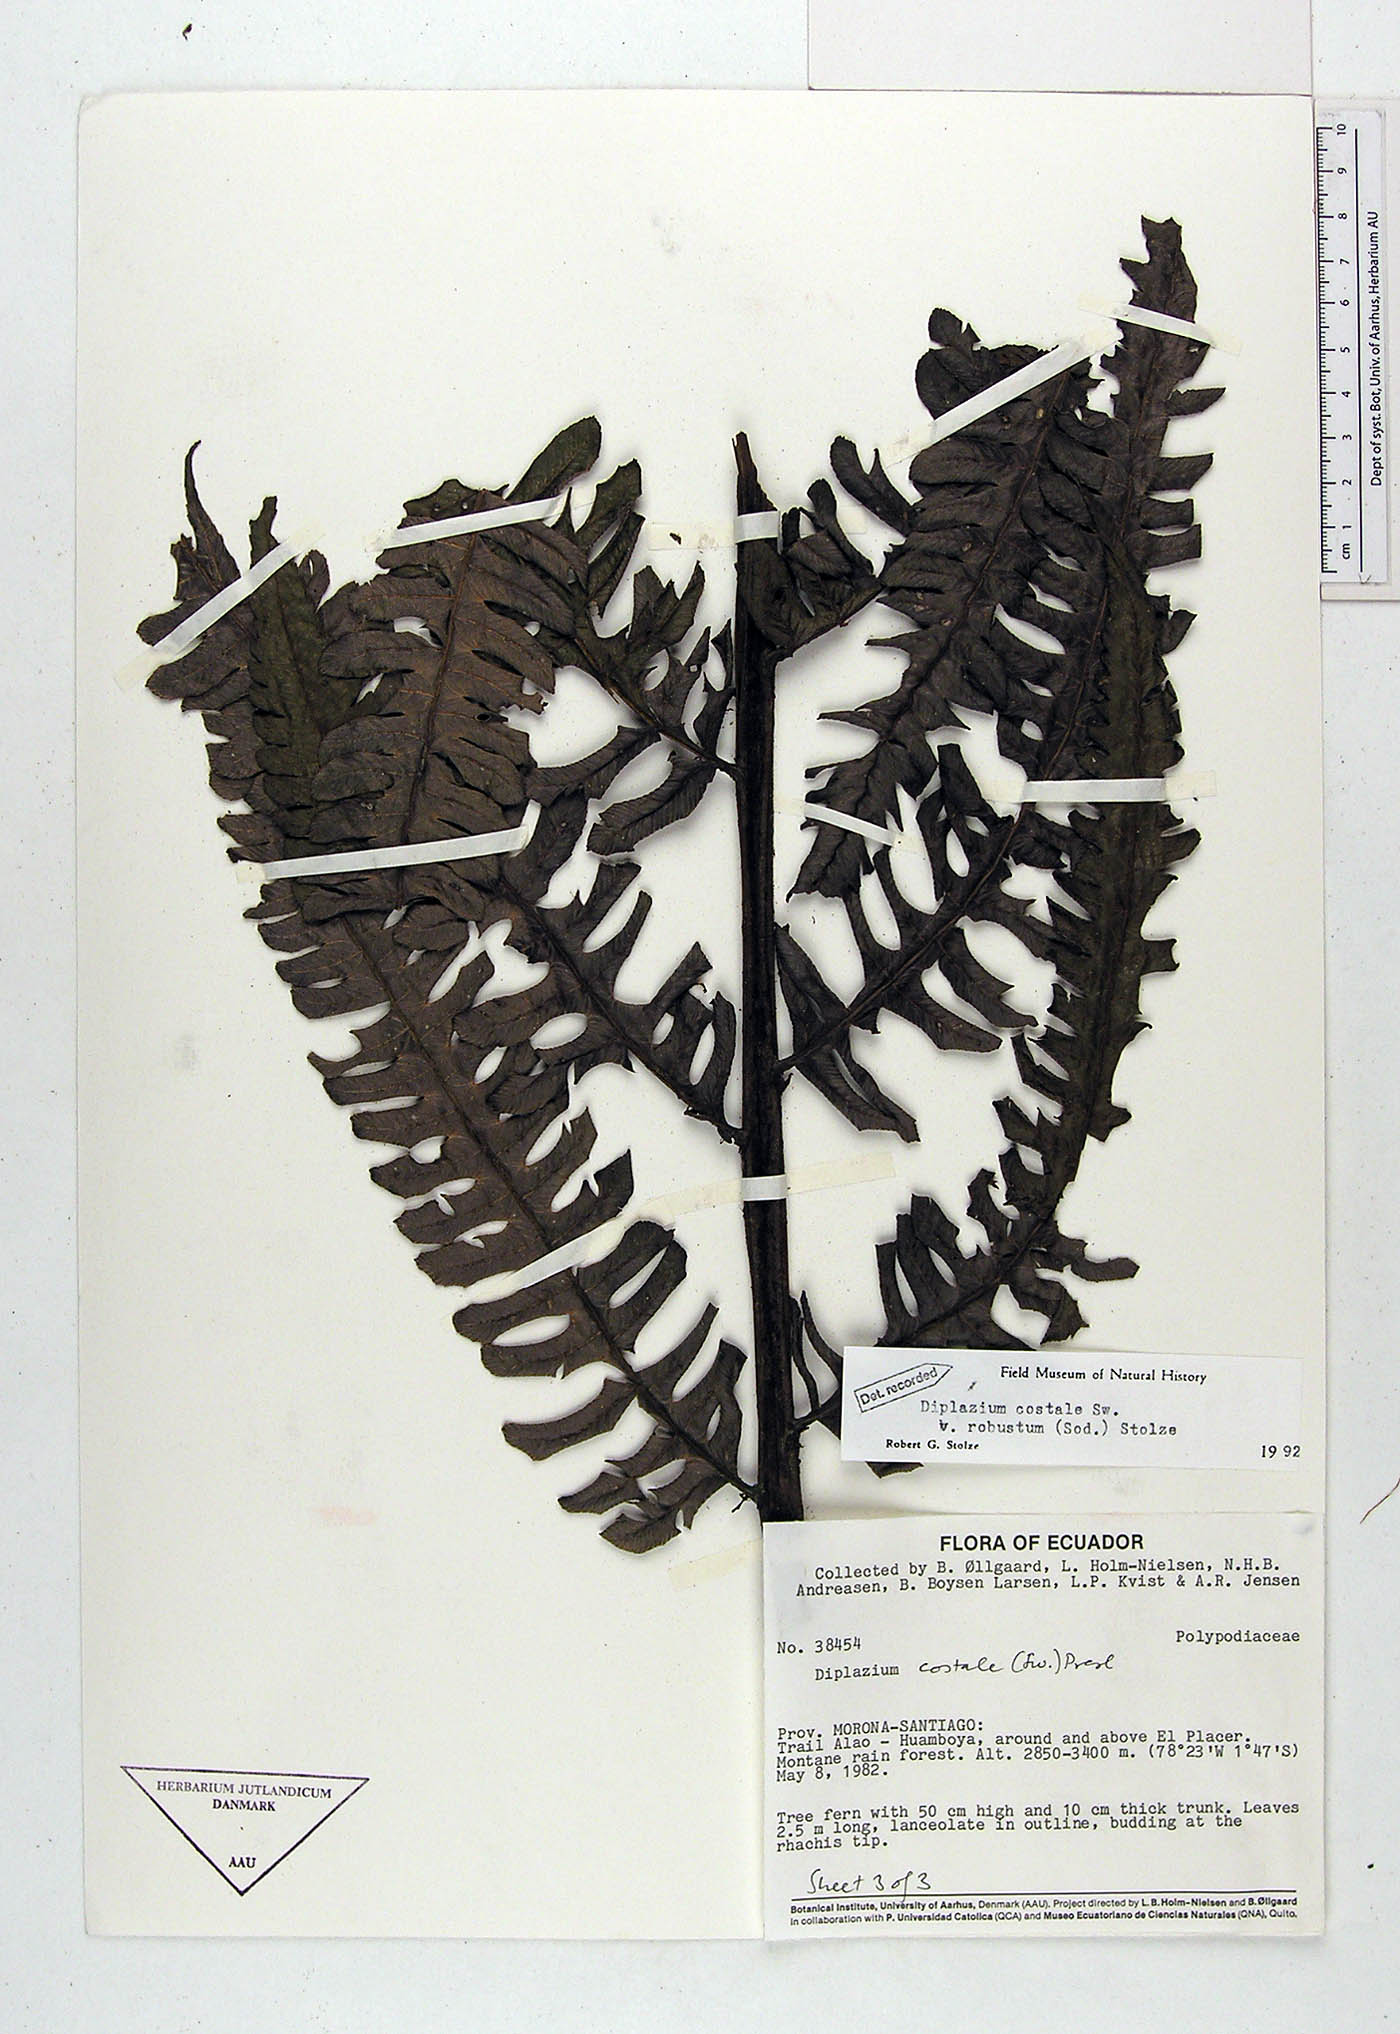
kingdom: Plantae
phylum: Tracheophyta
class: Polypodiopsida
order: Polypodiales
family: Athyriaceae
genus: Diplazium
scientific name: Diplazium costale
